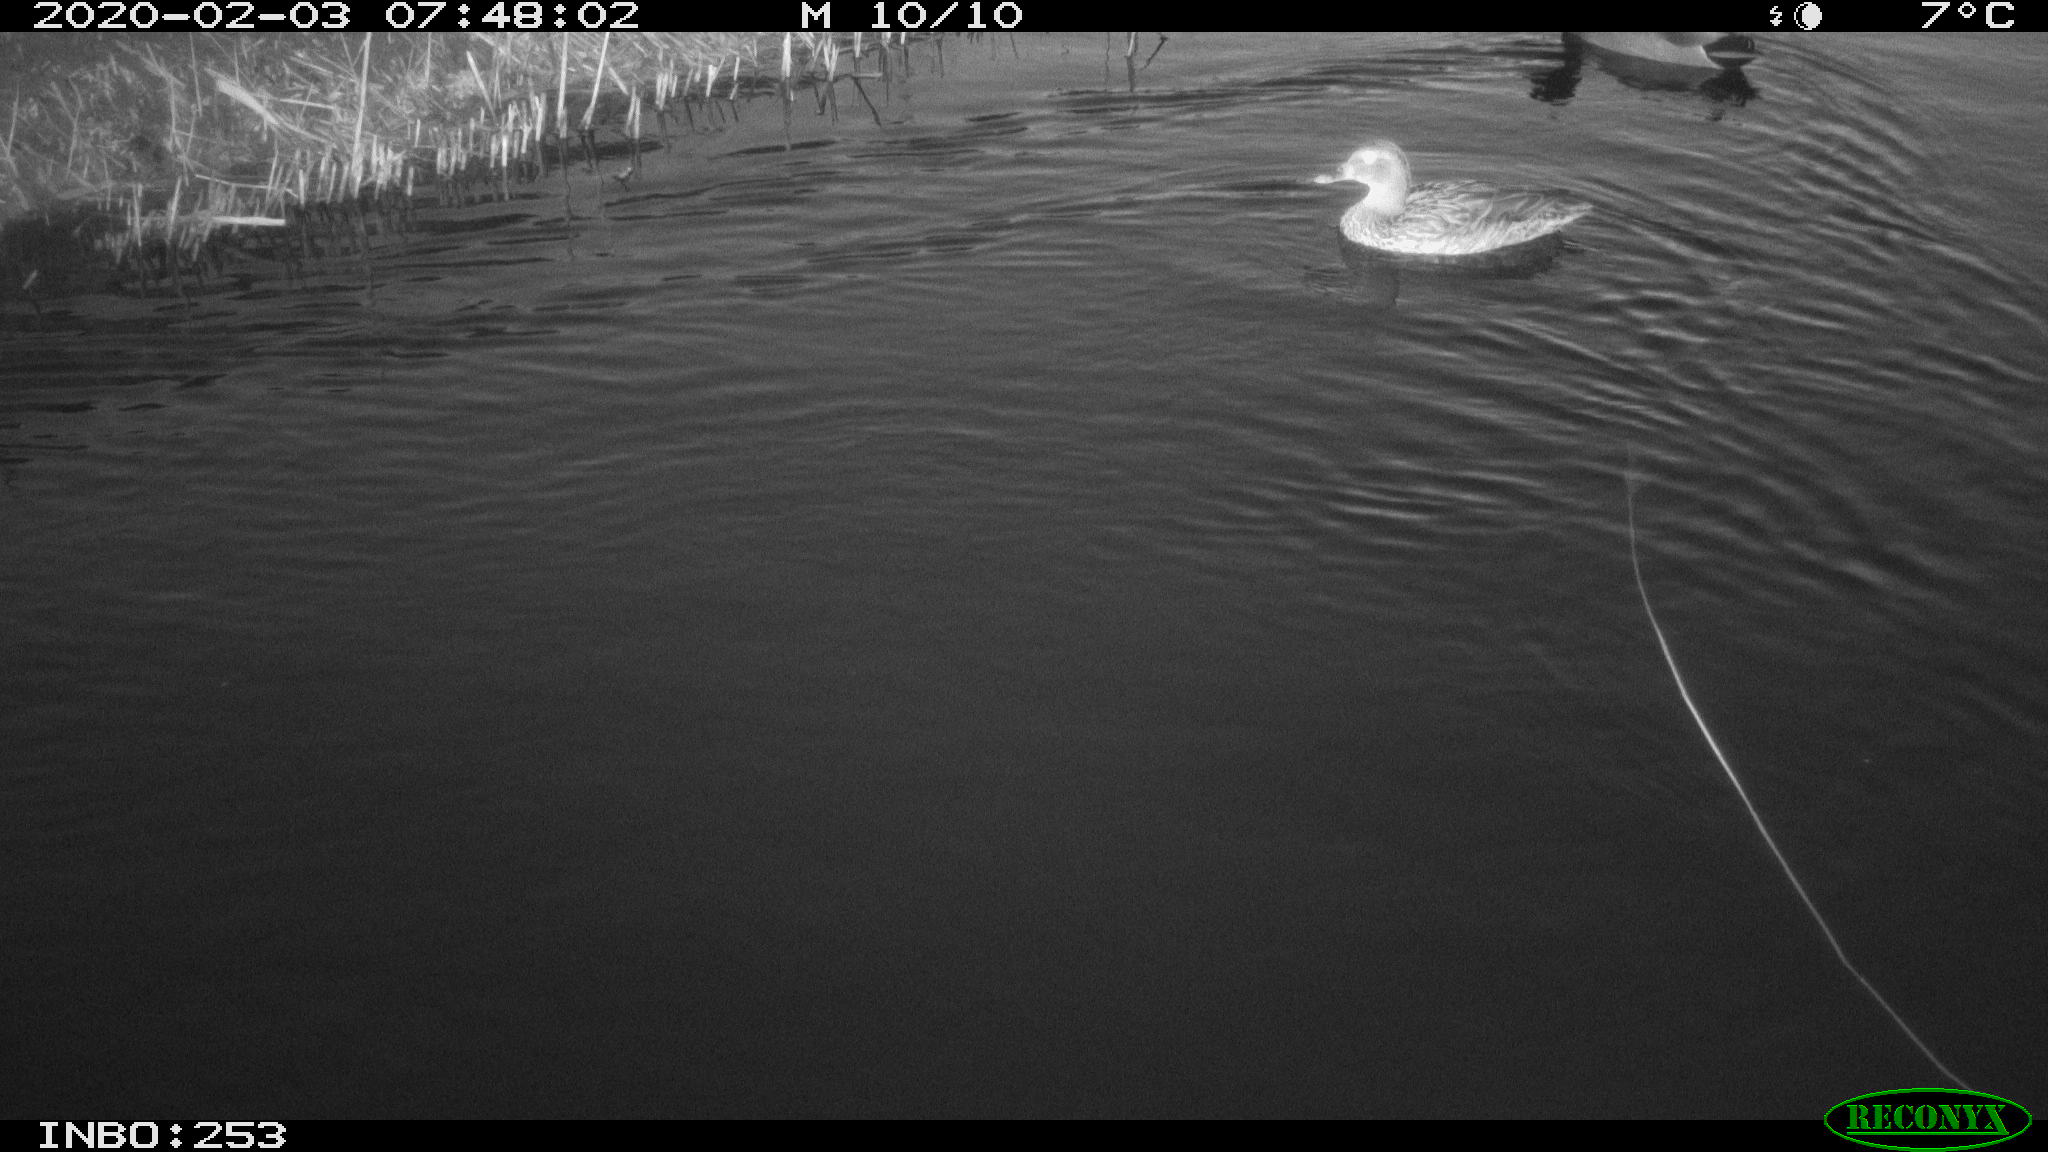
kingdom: Animalia
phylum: Chordata
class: Aves
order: Anseriformes
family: Anatidae
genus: Anas
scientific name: Anas platyrhynchos
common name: Mallard
